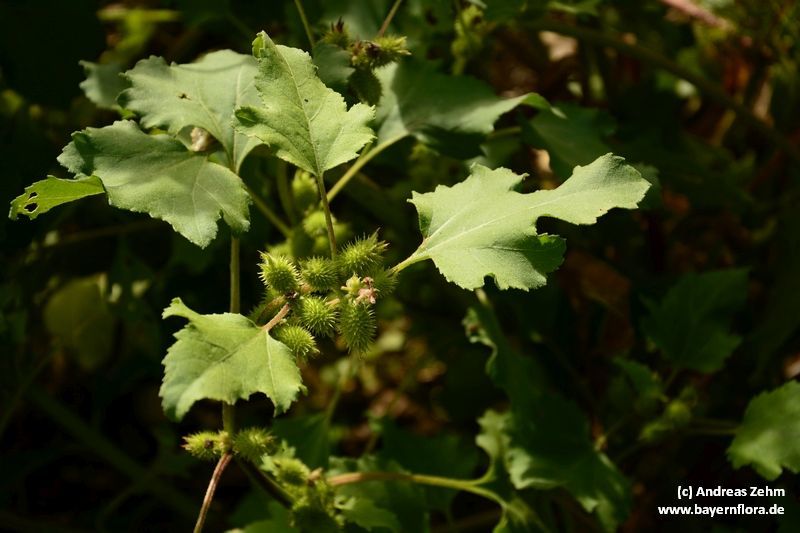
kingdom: Plantae
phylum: Tracheophyta
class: Magnoliopsida
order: Asterales
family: Asteraceae
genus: Xanthium
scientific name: Xanthium strumarium
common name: Rough cocklebur
